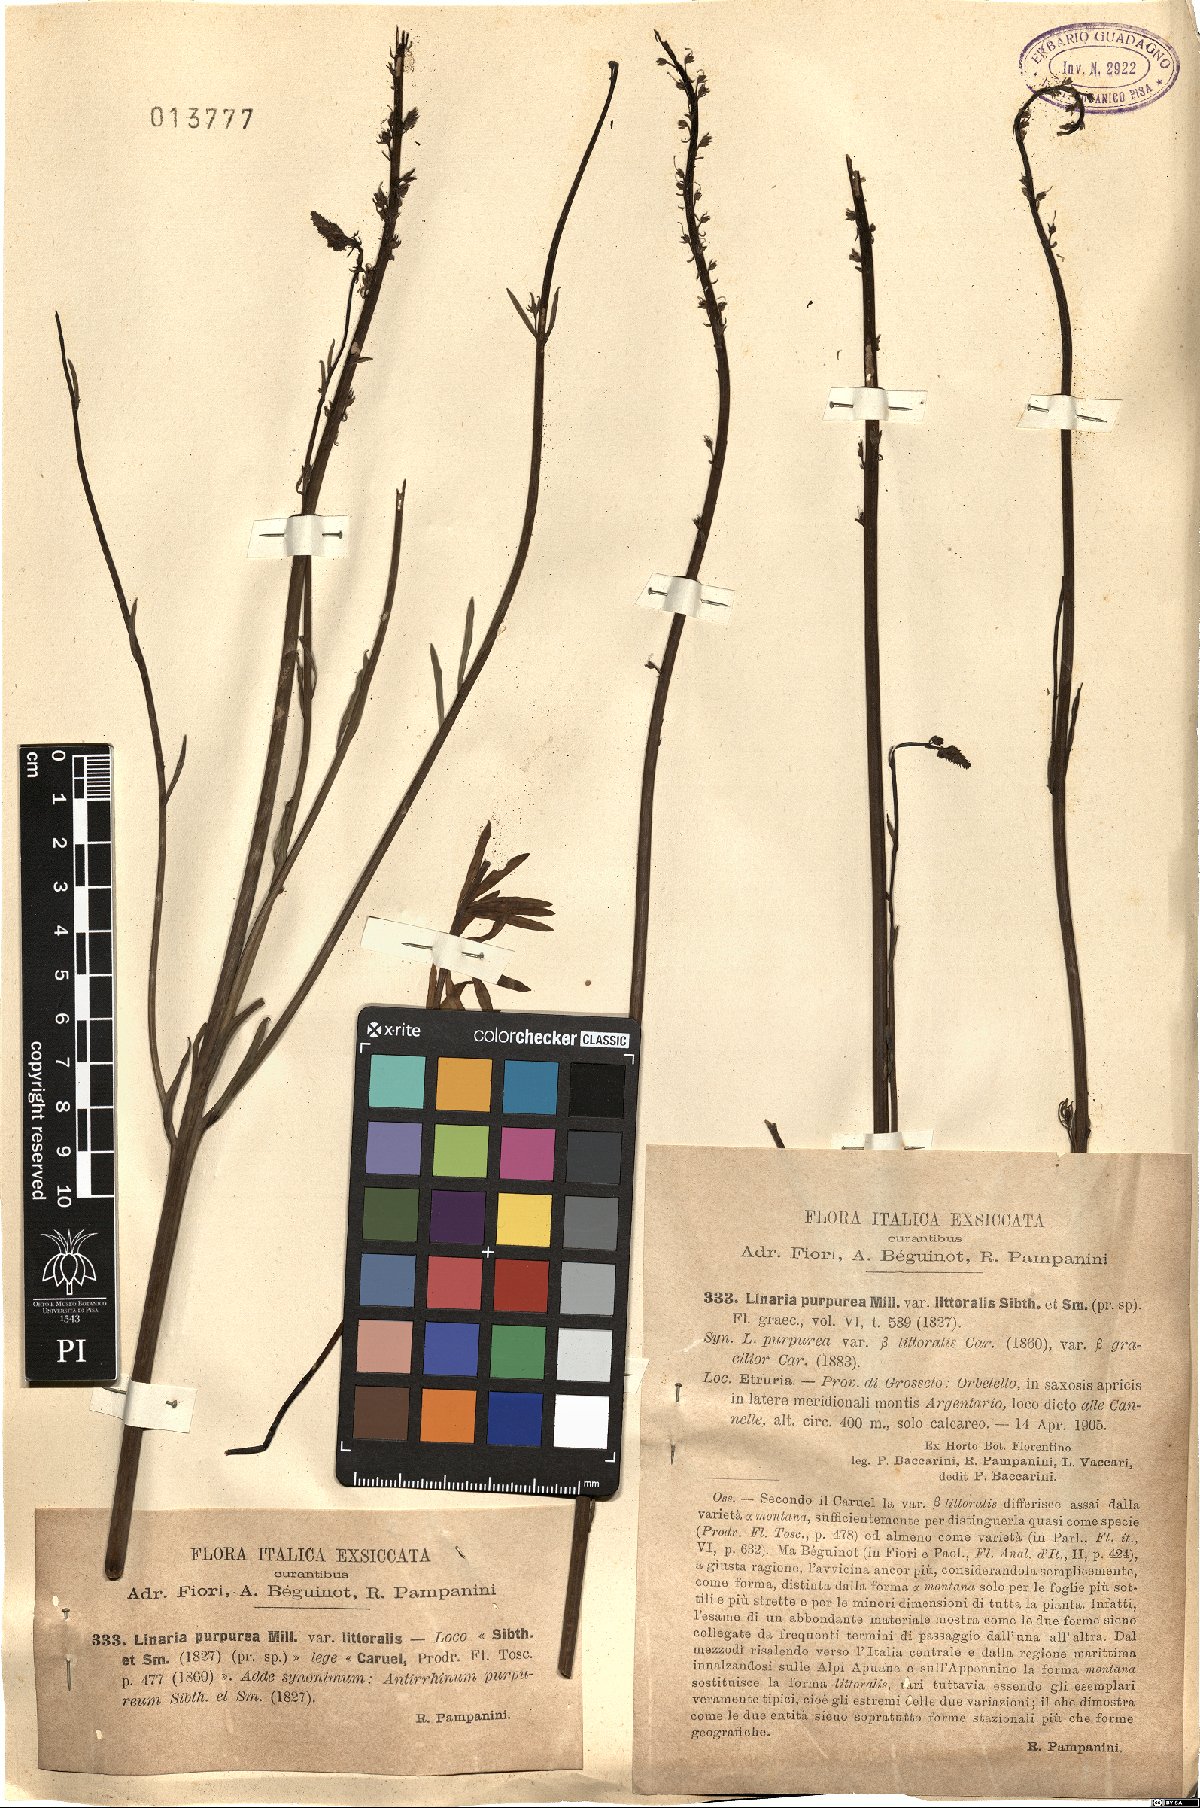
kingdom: Plantae
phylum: Tracheophyta
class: Magnoliopsida
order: Lamiales
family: Plantaginaceae
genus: Linaria
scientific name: Linaria purpurea
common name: Purple toadflax
